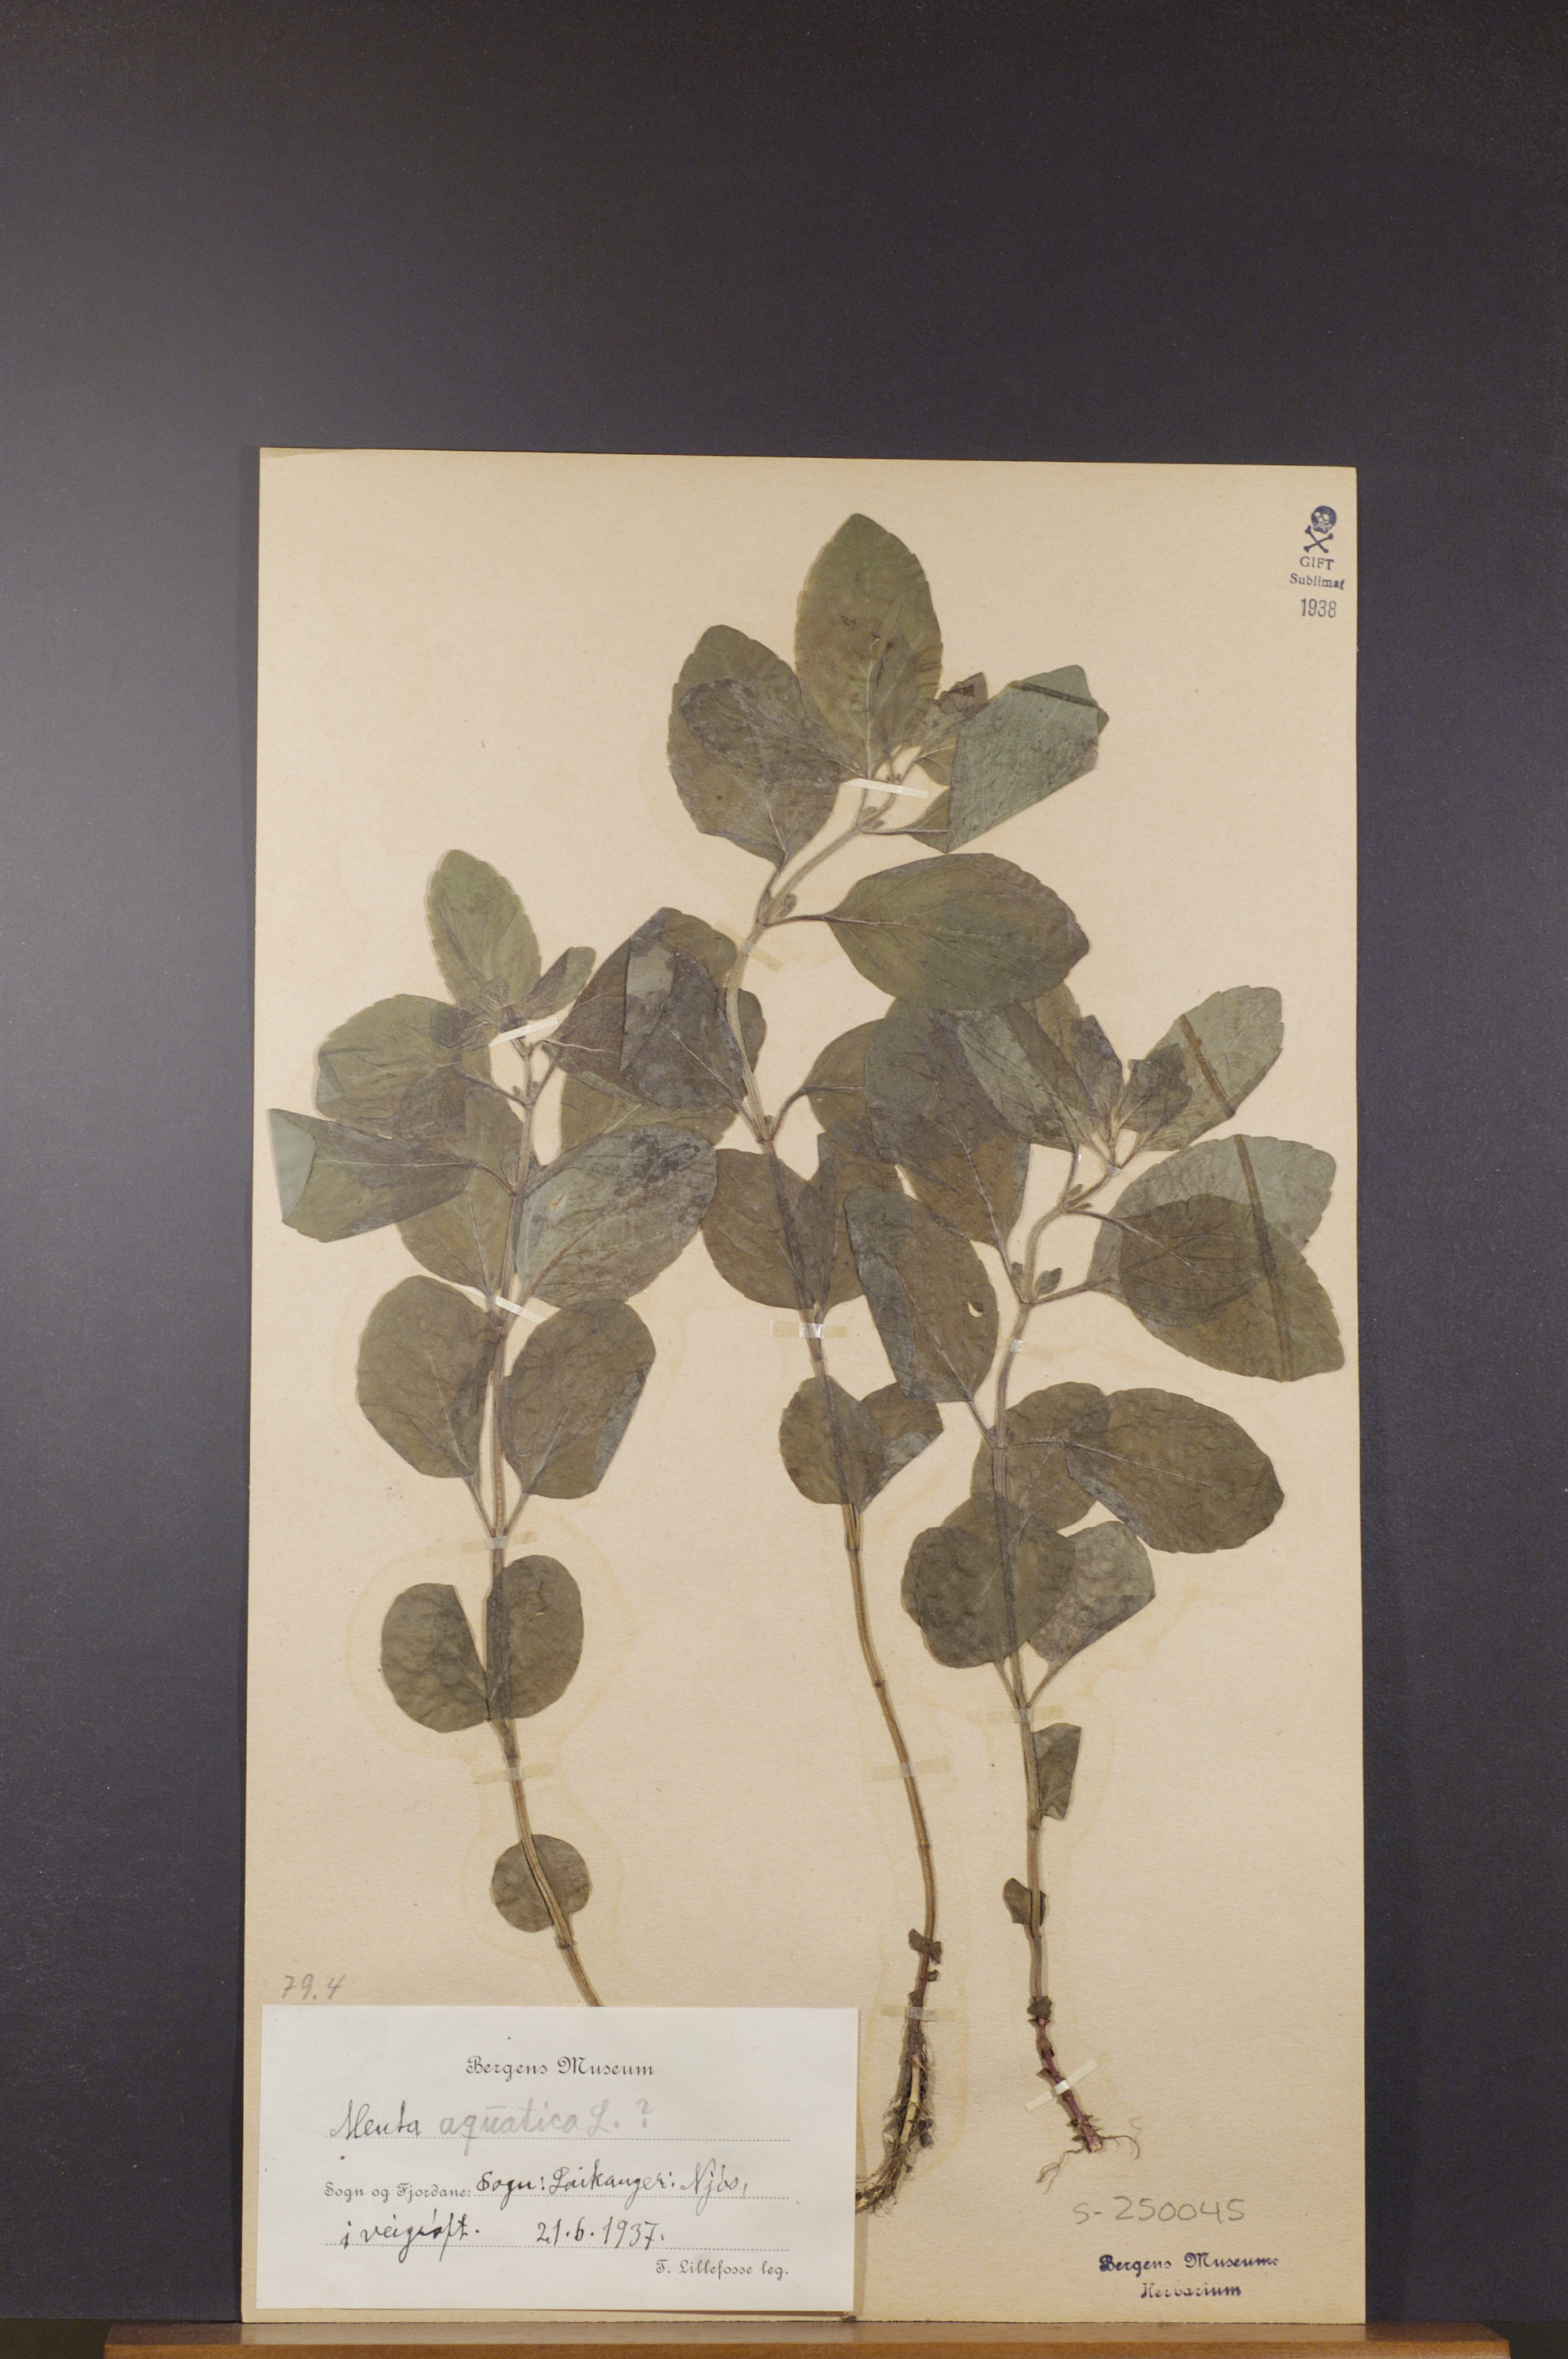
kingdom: Plantae
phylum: Tracheophyta
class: Magnoliopsida
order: Lamiales
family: Lamiaceae
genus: Mentha
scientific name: Mentha aquatica
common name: Water mint
